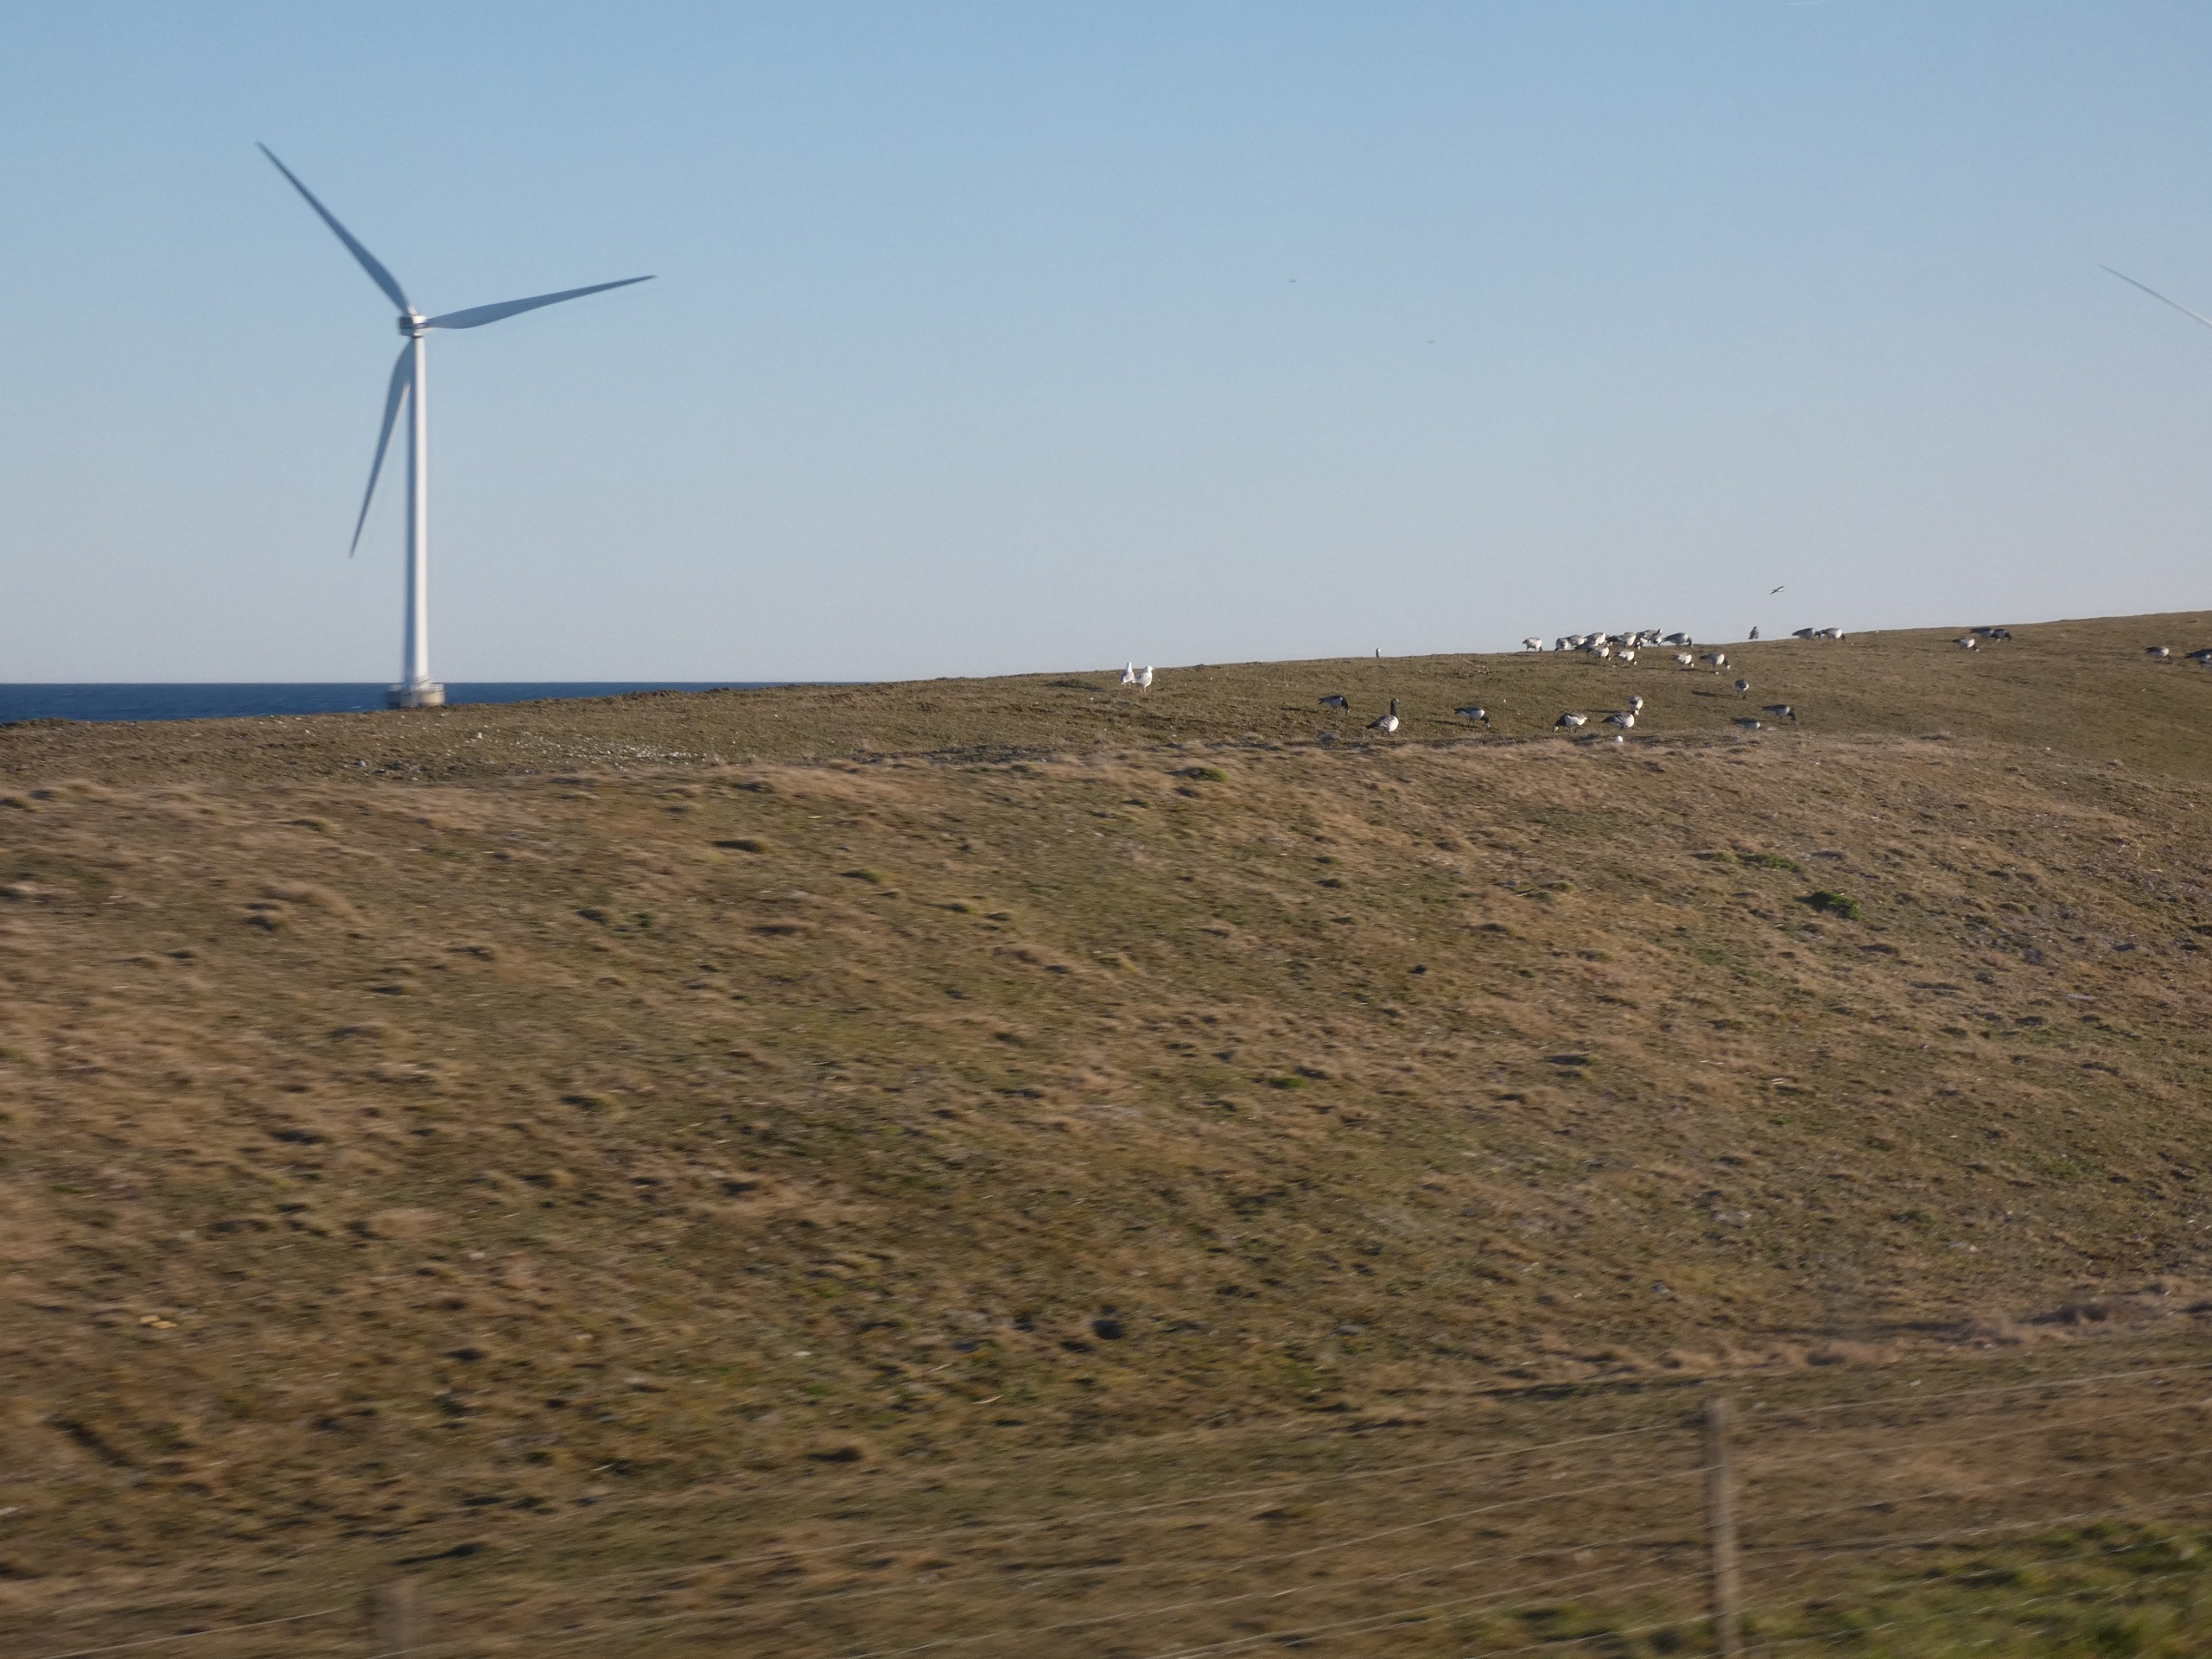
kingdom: Animalia
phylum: Chordata
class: Aves
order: Anseriformes
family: Anatidae
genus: Branta
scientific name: Branta leucopsis
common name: Bramgås
